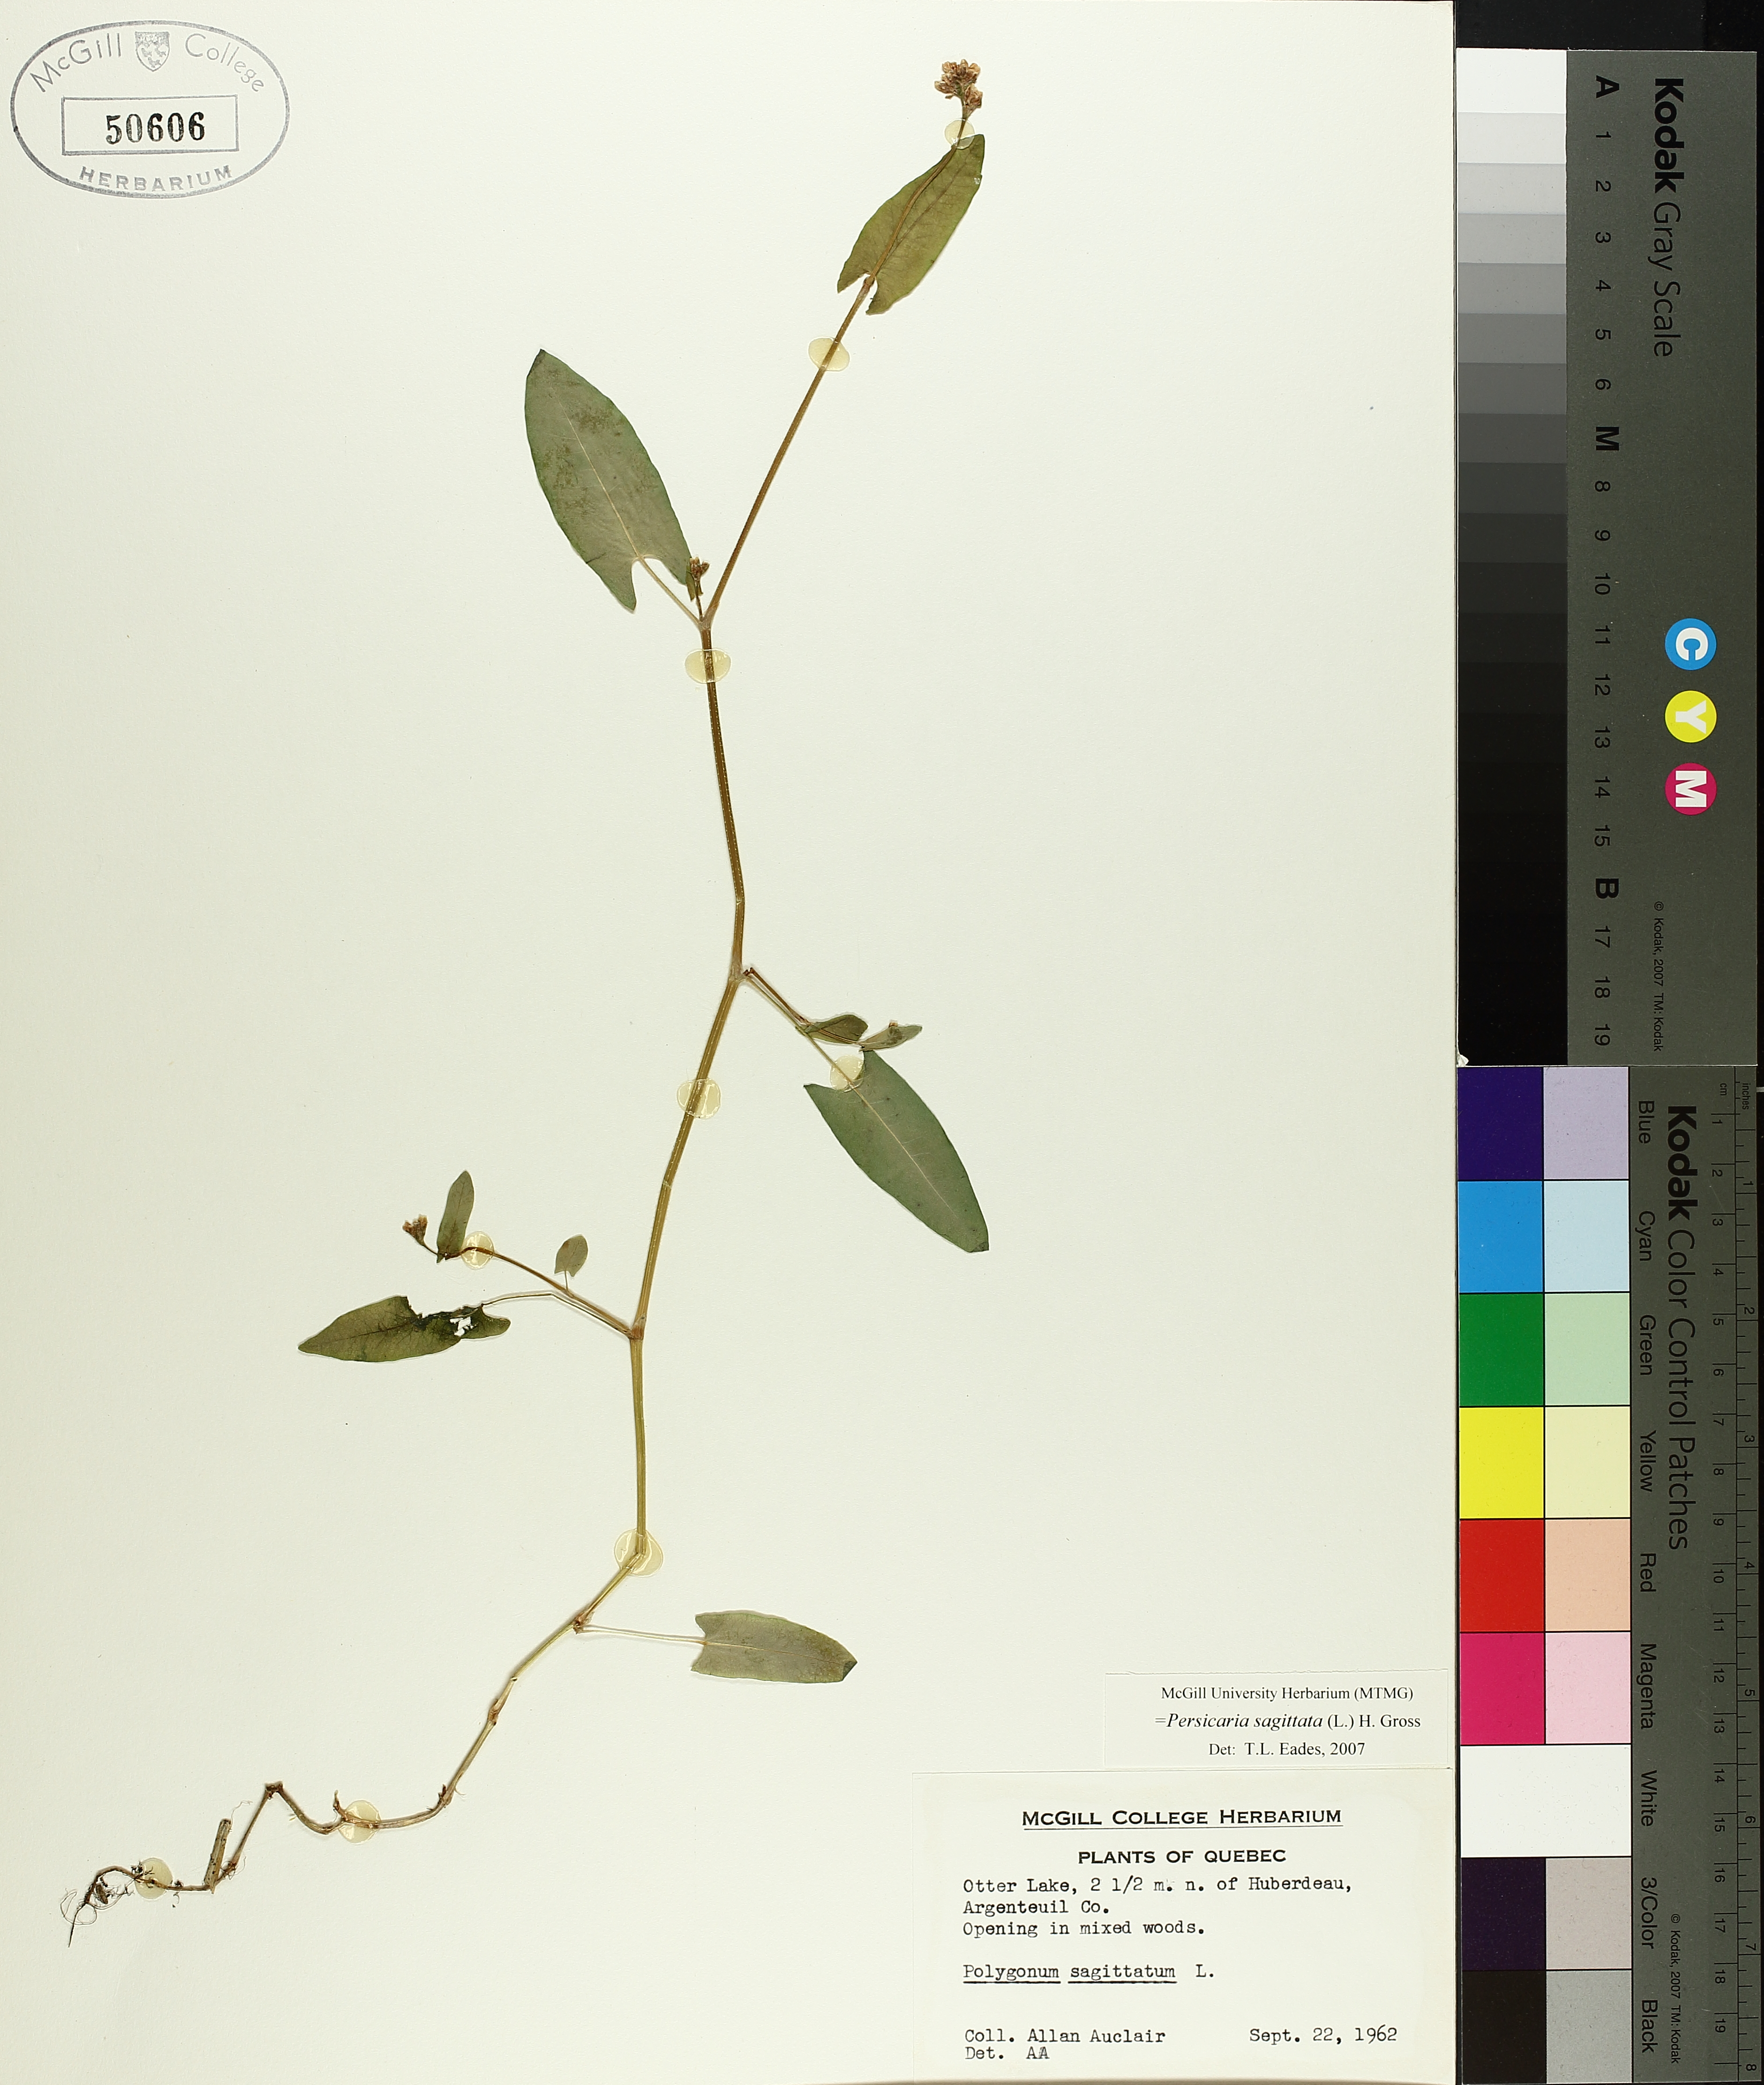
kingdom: Plantae
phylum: Tracheophyta
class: Magnoliopsida
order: Caryophyllales
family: Polygonaceae
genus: Persicaria
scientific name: Persicaria sagittata
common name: American tearthumb
